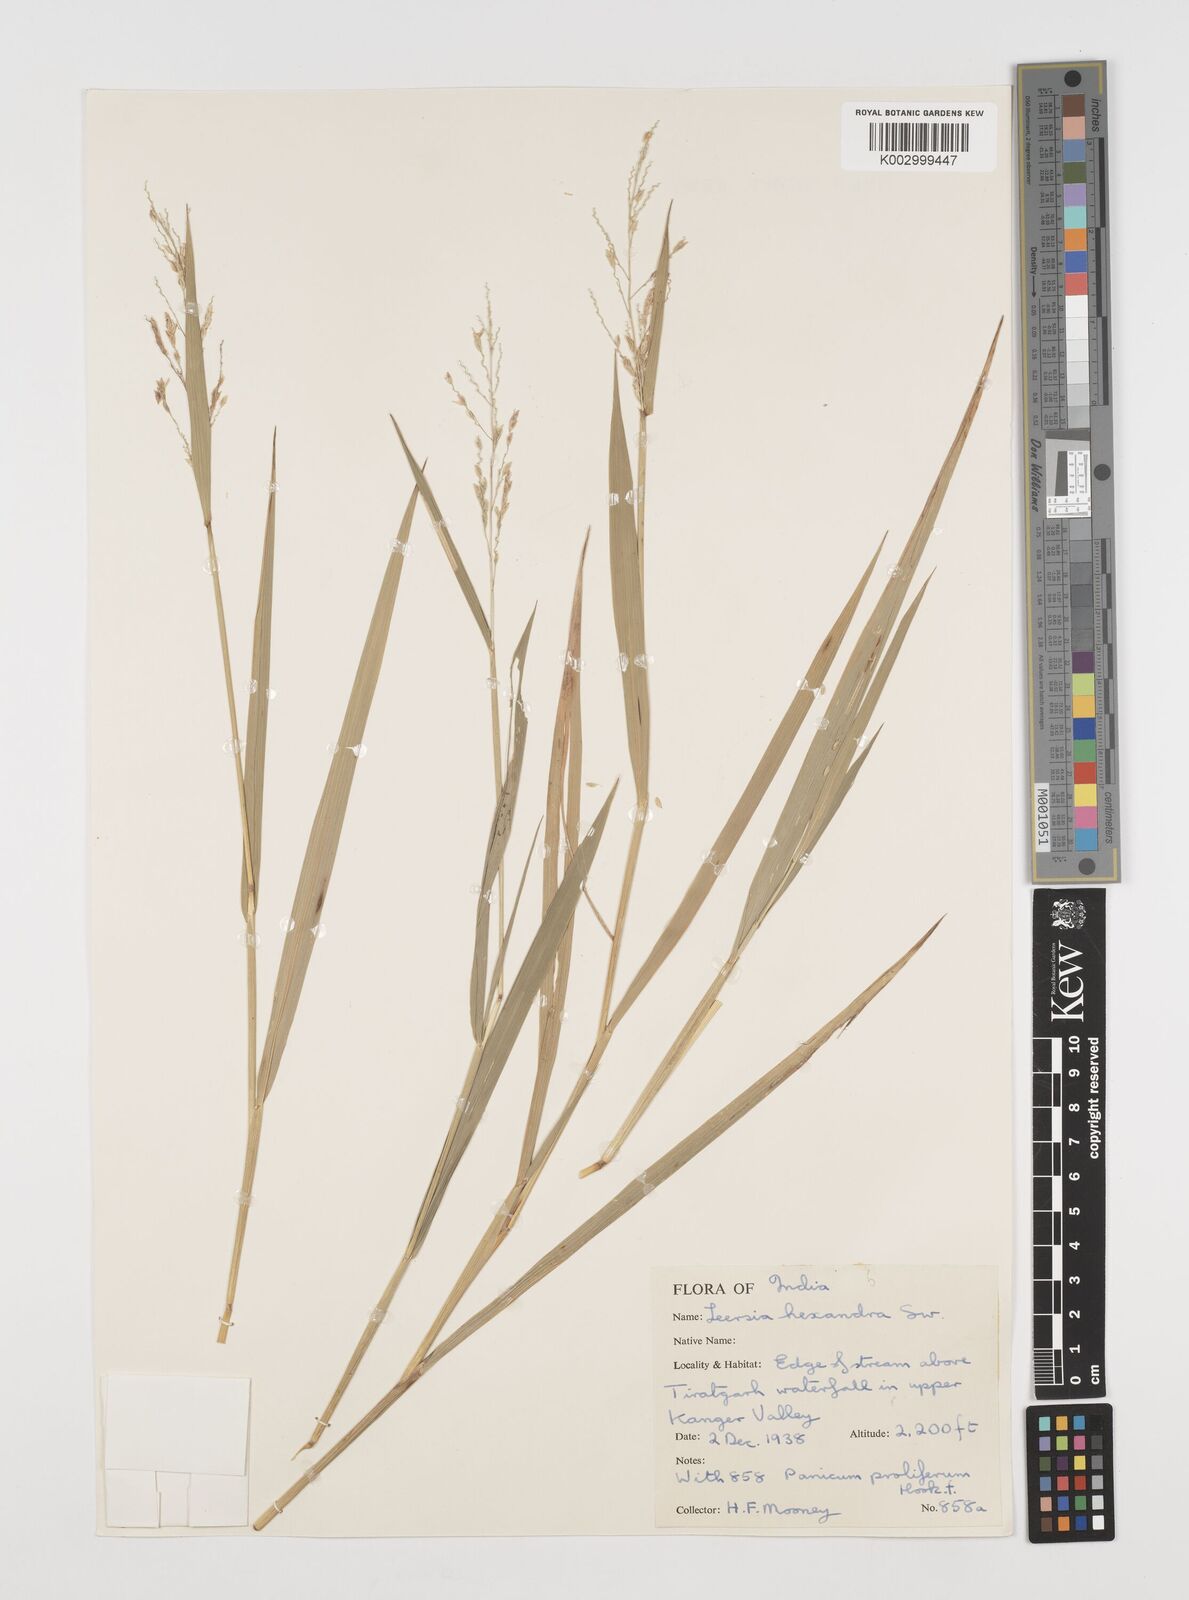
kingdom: Plantae
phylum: Tracheophyta
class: Liliopsida
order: Poales
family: Poaceae
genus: Leersia
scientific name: Leersia hexandra
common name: Southern cut grass
